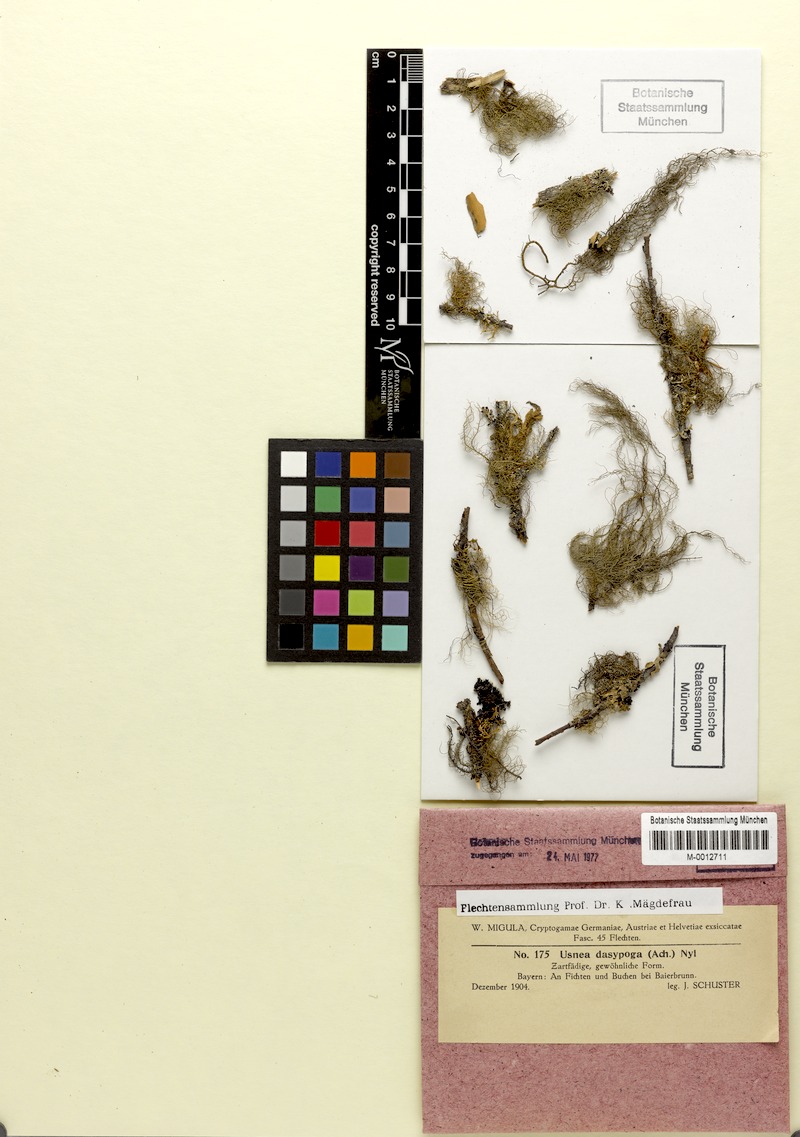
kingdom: Fungi
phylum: Ascomycota
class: Lecanoromycetes
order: Lecanorales
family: Parmeliaceae
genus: Usnea
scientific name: Usnea dasopoga
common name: Fishbone beard lichen
